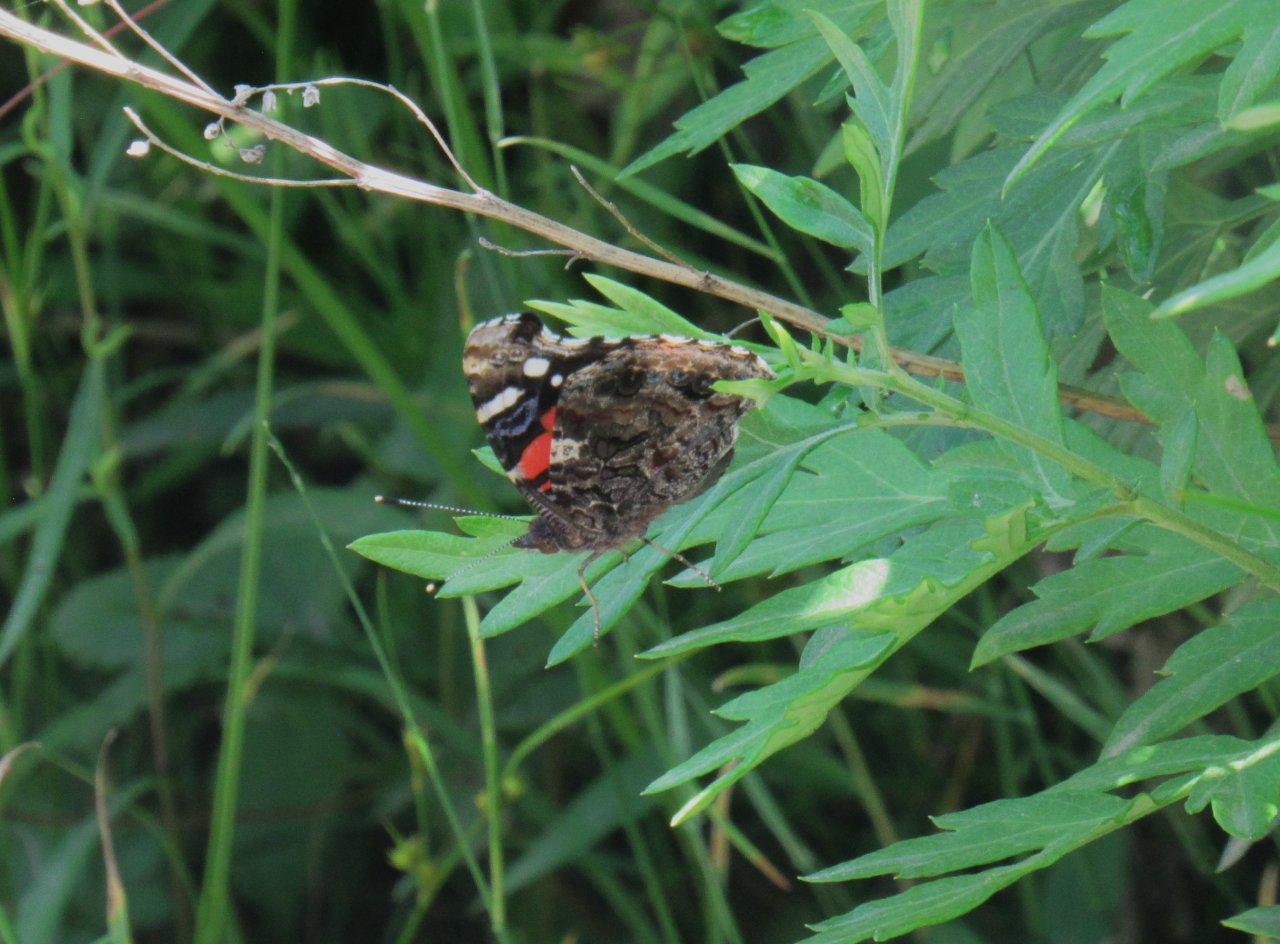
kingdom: Animalia
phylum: Arthropoda
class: Insecta
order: Lepidoptera
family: Nymphalidae
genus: Vanessa
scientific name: Vanessa atalanta
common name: Red Admiral
